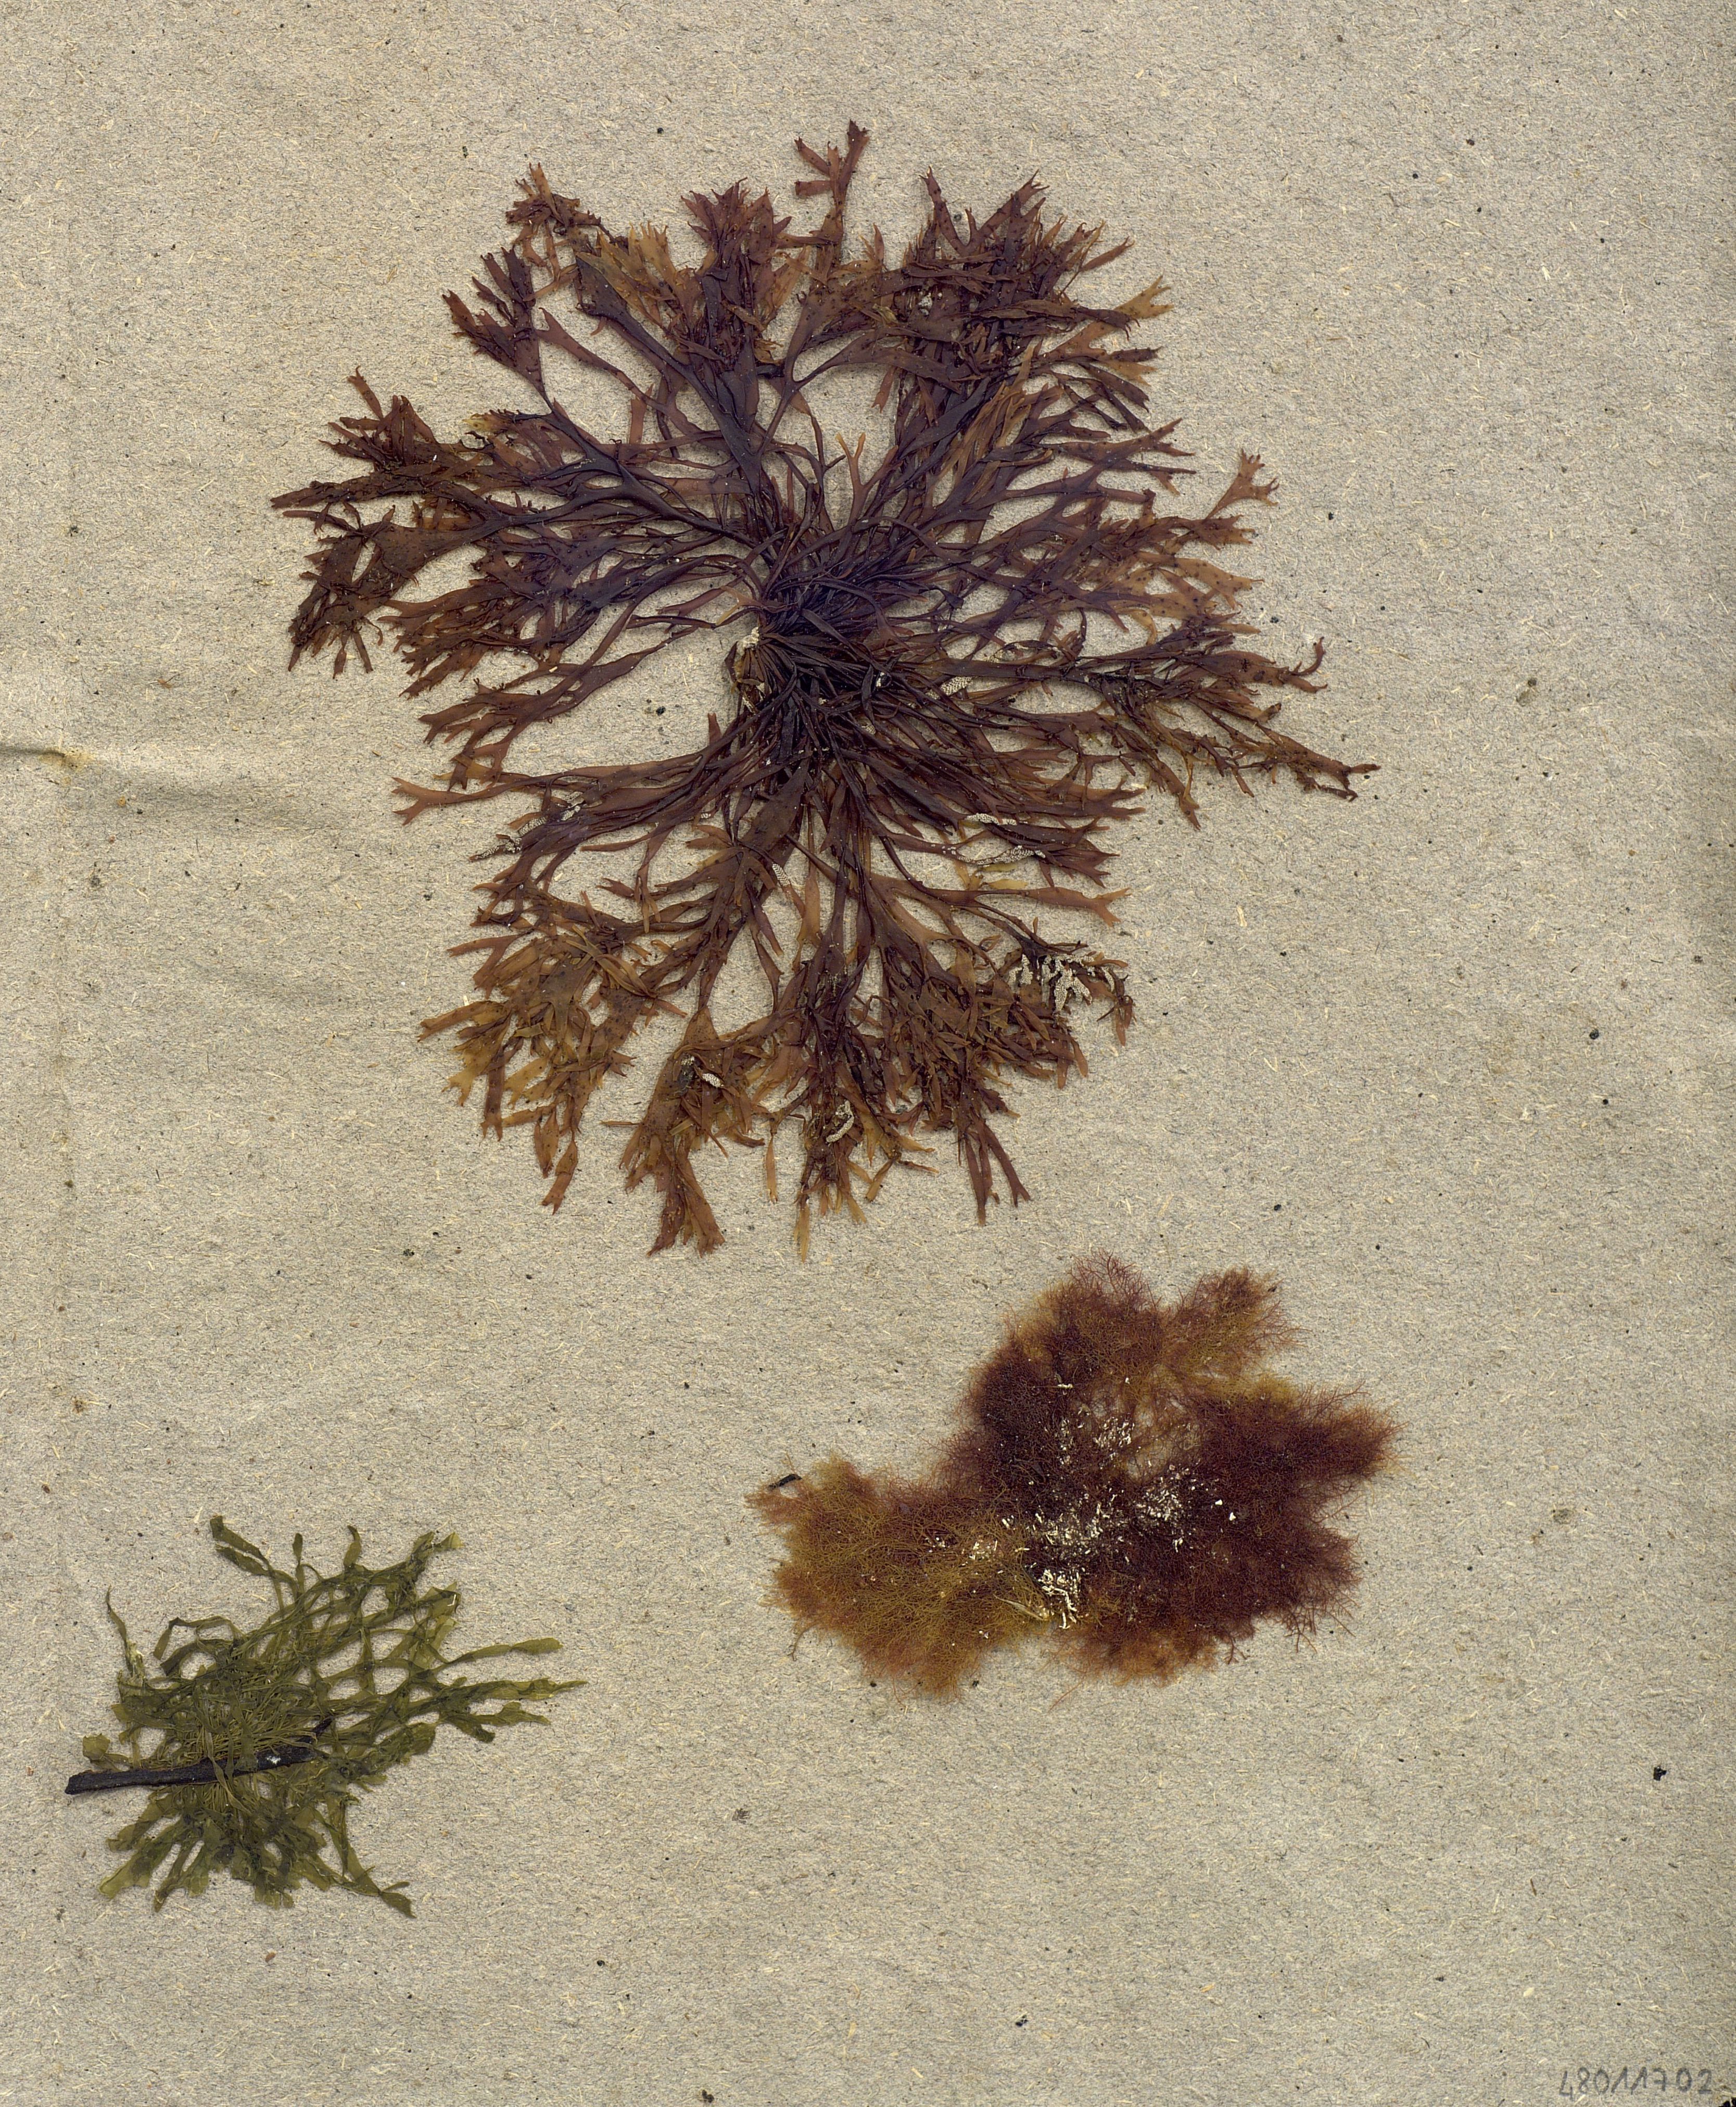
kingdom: Plantae
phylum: Rhodophyta
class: Florideophyceae
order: Ceramiales
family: Ceramiaceae
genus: Ceramium
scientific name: Ceramium
